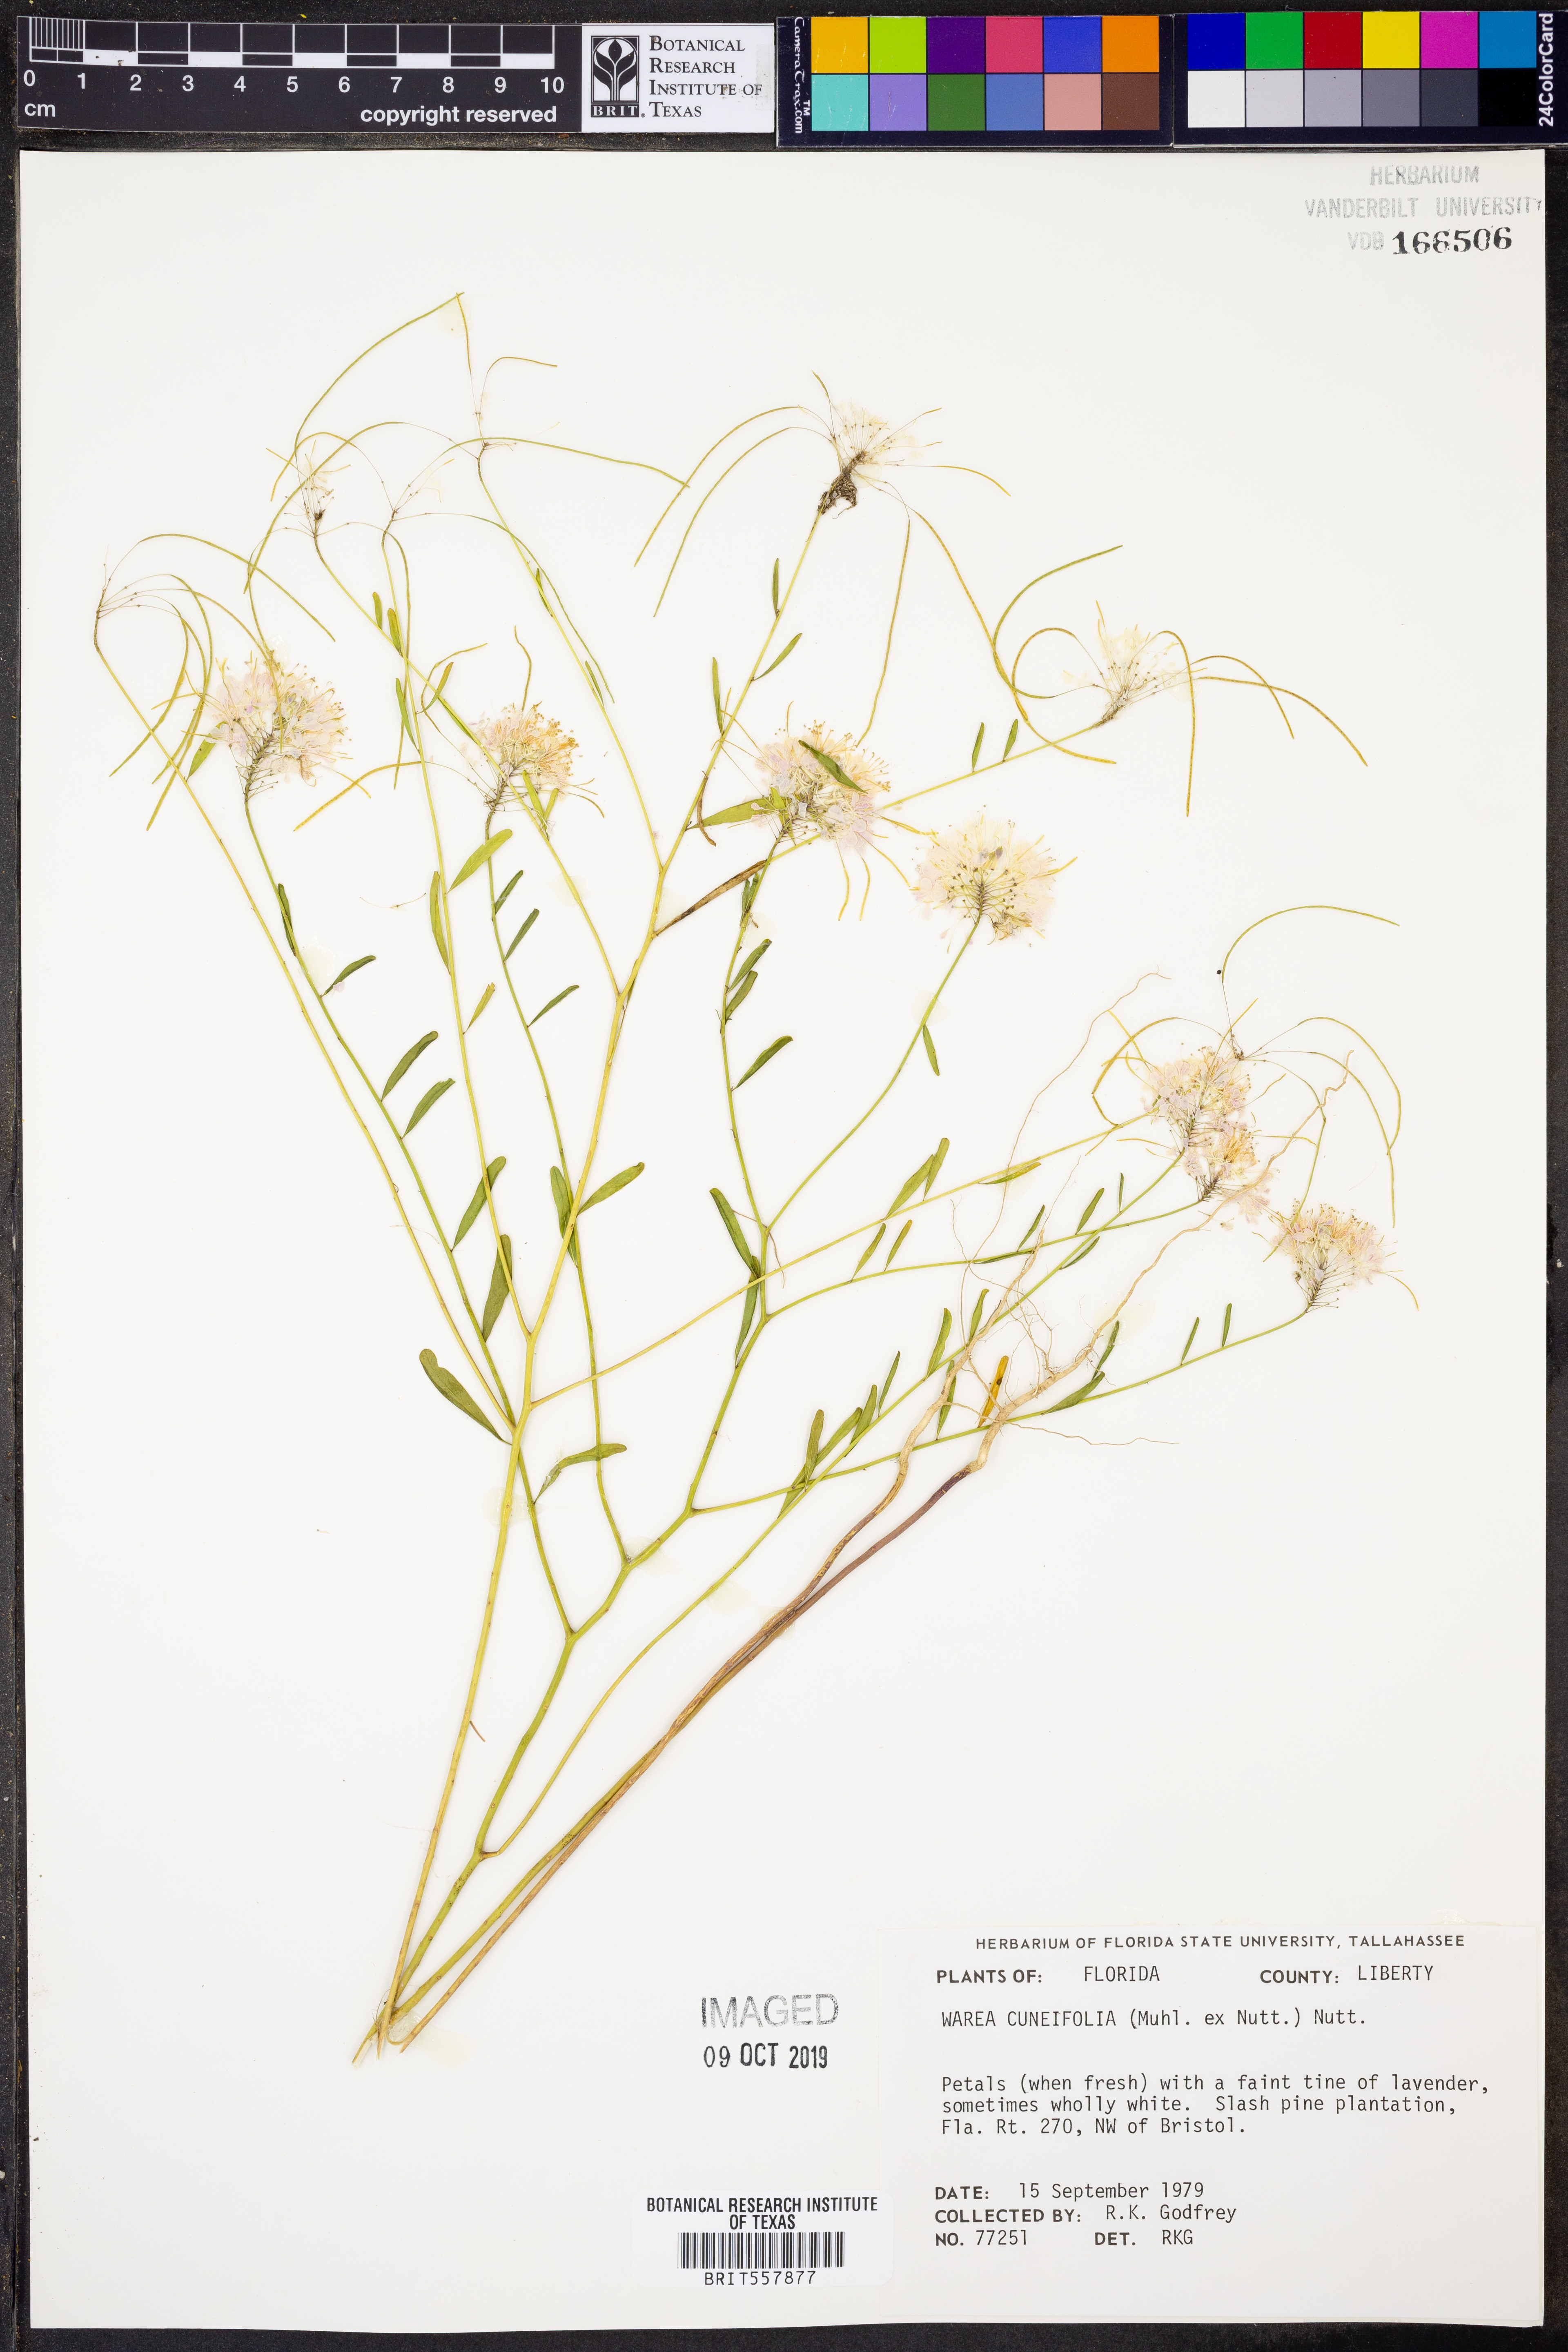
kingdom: Plantae
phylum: Tracheophyta
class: Magnoliopsida
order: Brassicales
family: Brassicaceae
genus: Warea
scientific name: Warea cuneifolia
